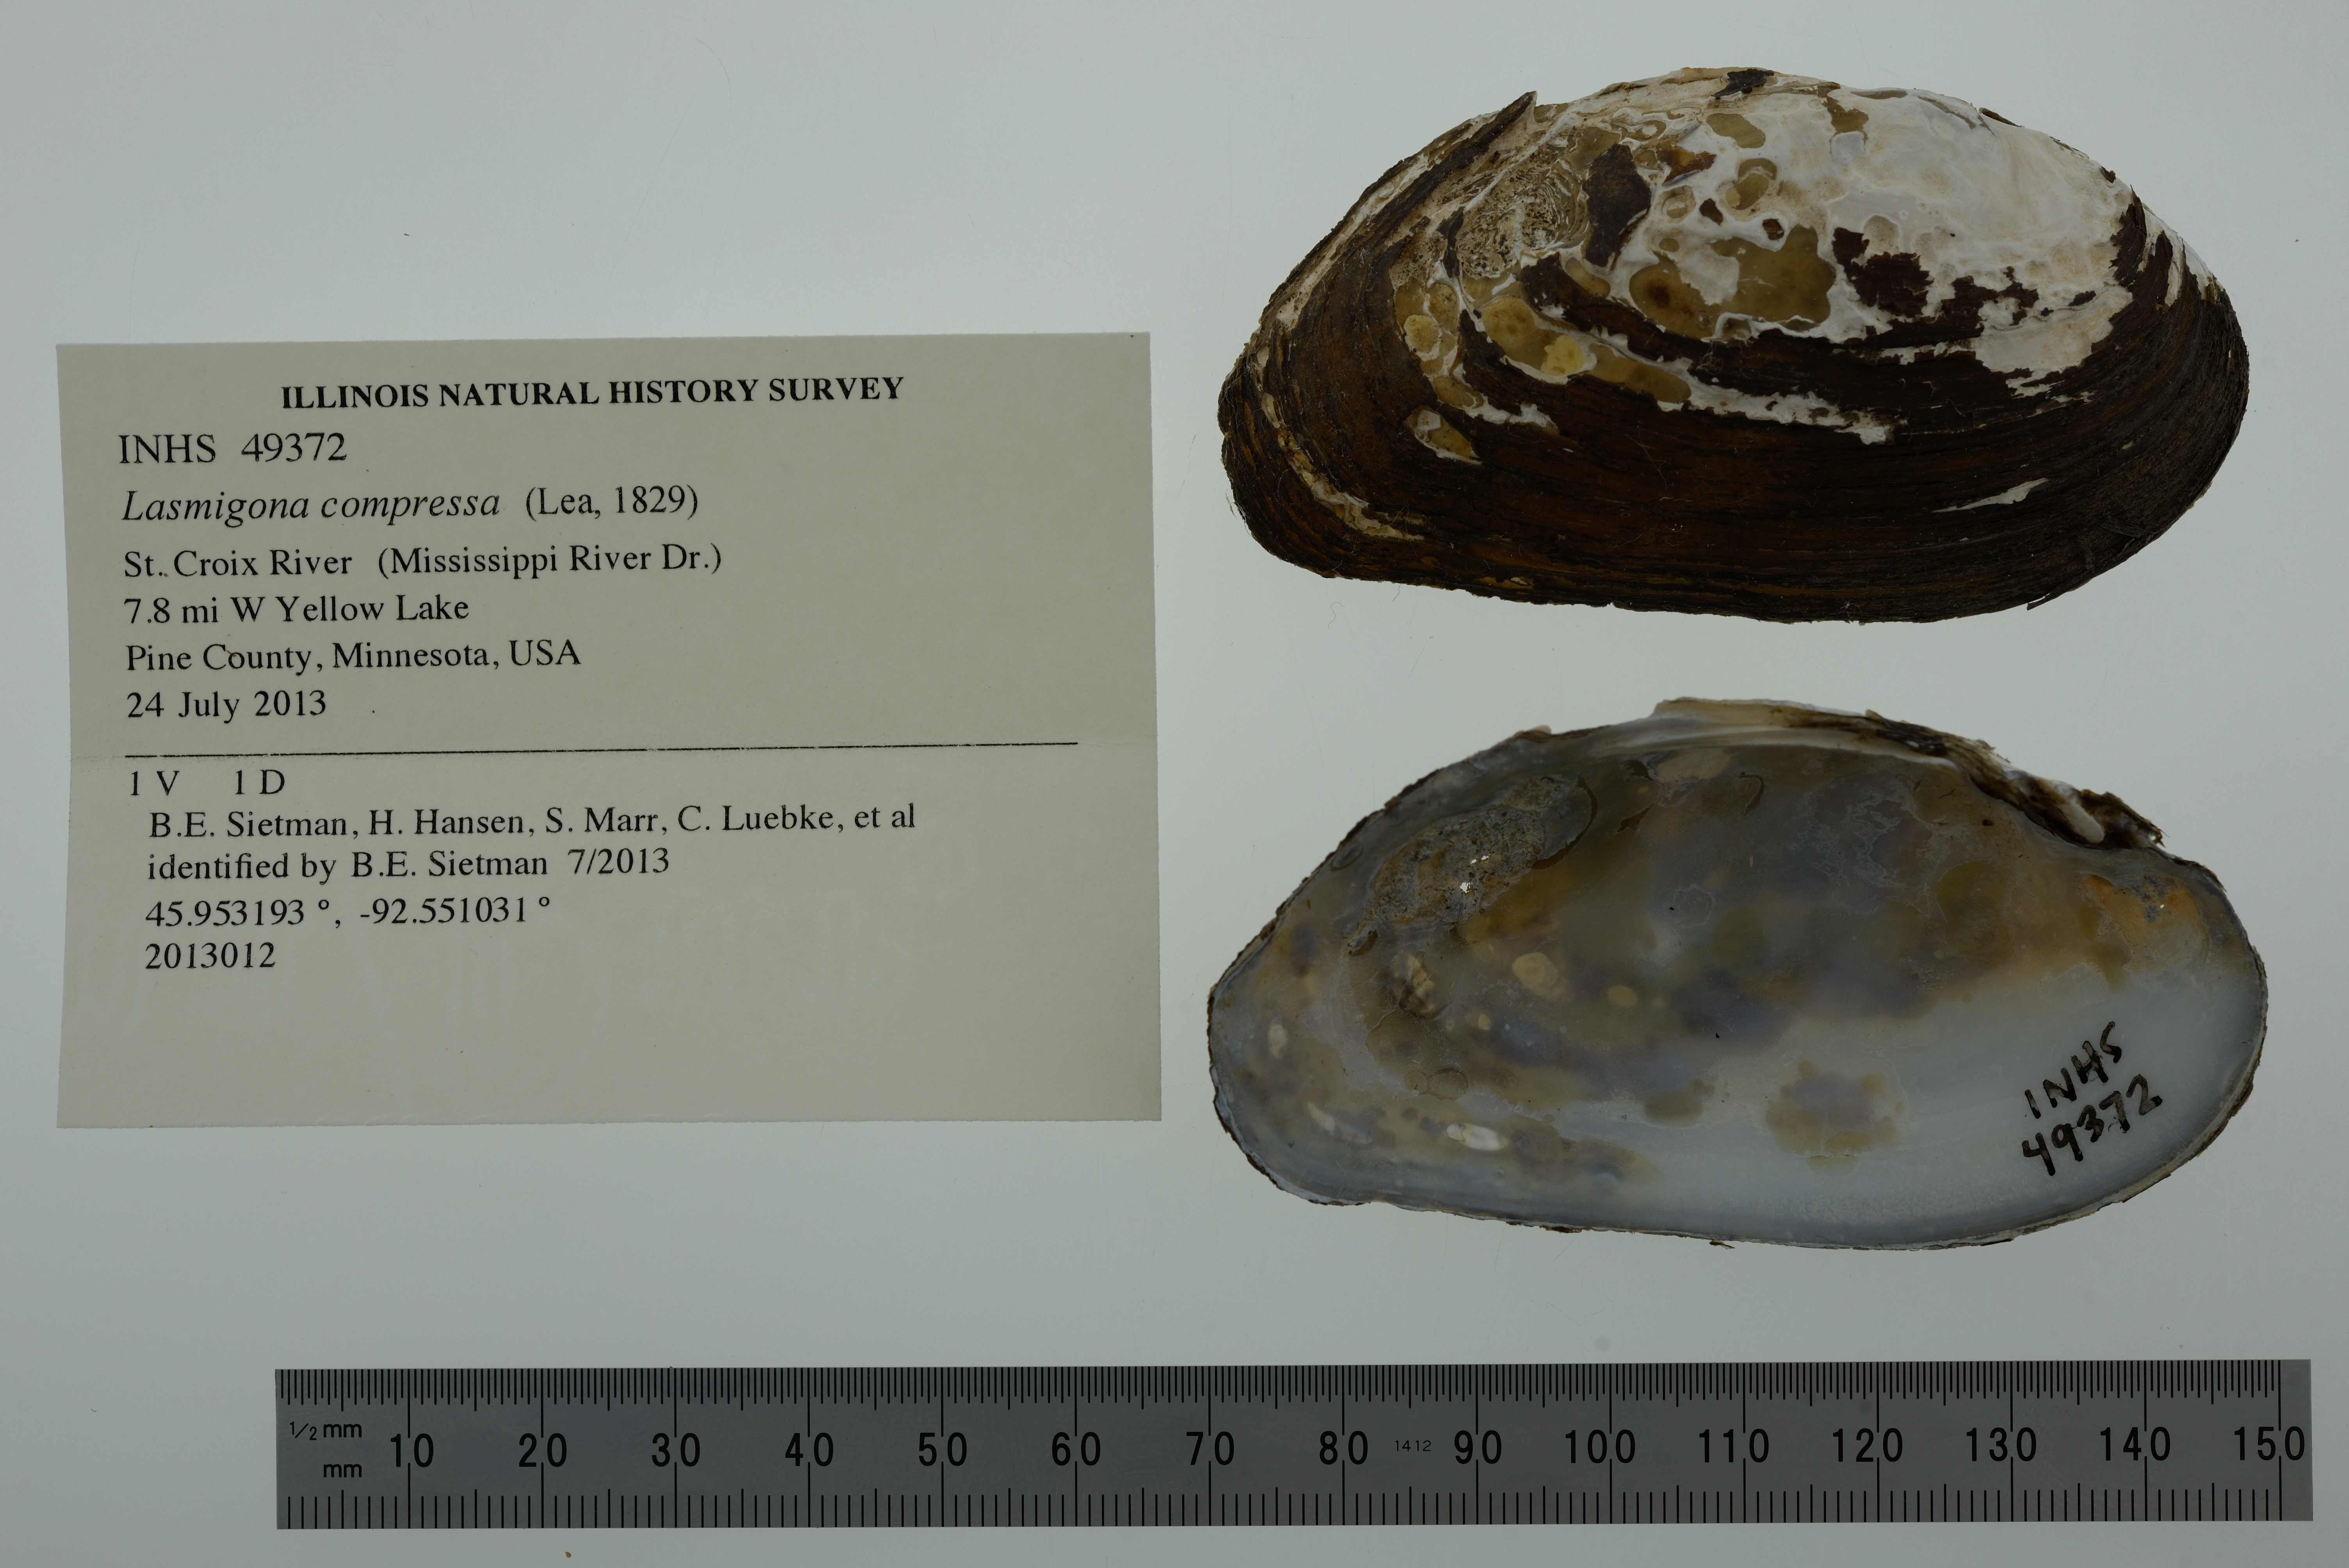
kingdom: Animalia
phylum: Mollusca
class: Bivalvia
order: Unionida
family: Unionidae
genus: Lasmigona
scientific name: Lasmigona compressa
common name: Creek heelsplitter
